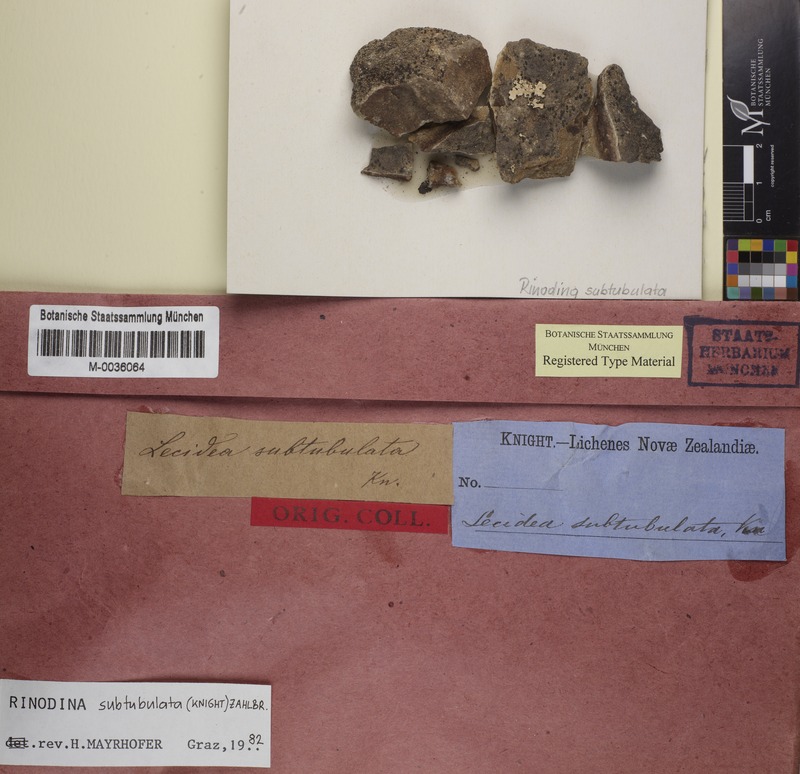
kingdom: Fungi
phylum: Ascomycota
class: Lecanoromycetes
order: Caliciales
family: Physciaceae
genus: Rinodina
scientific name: Rinodina
